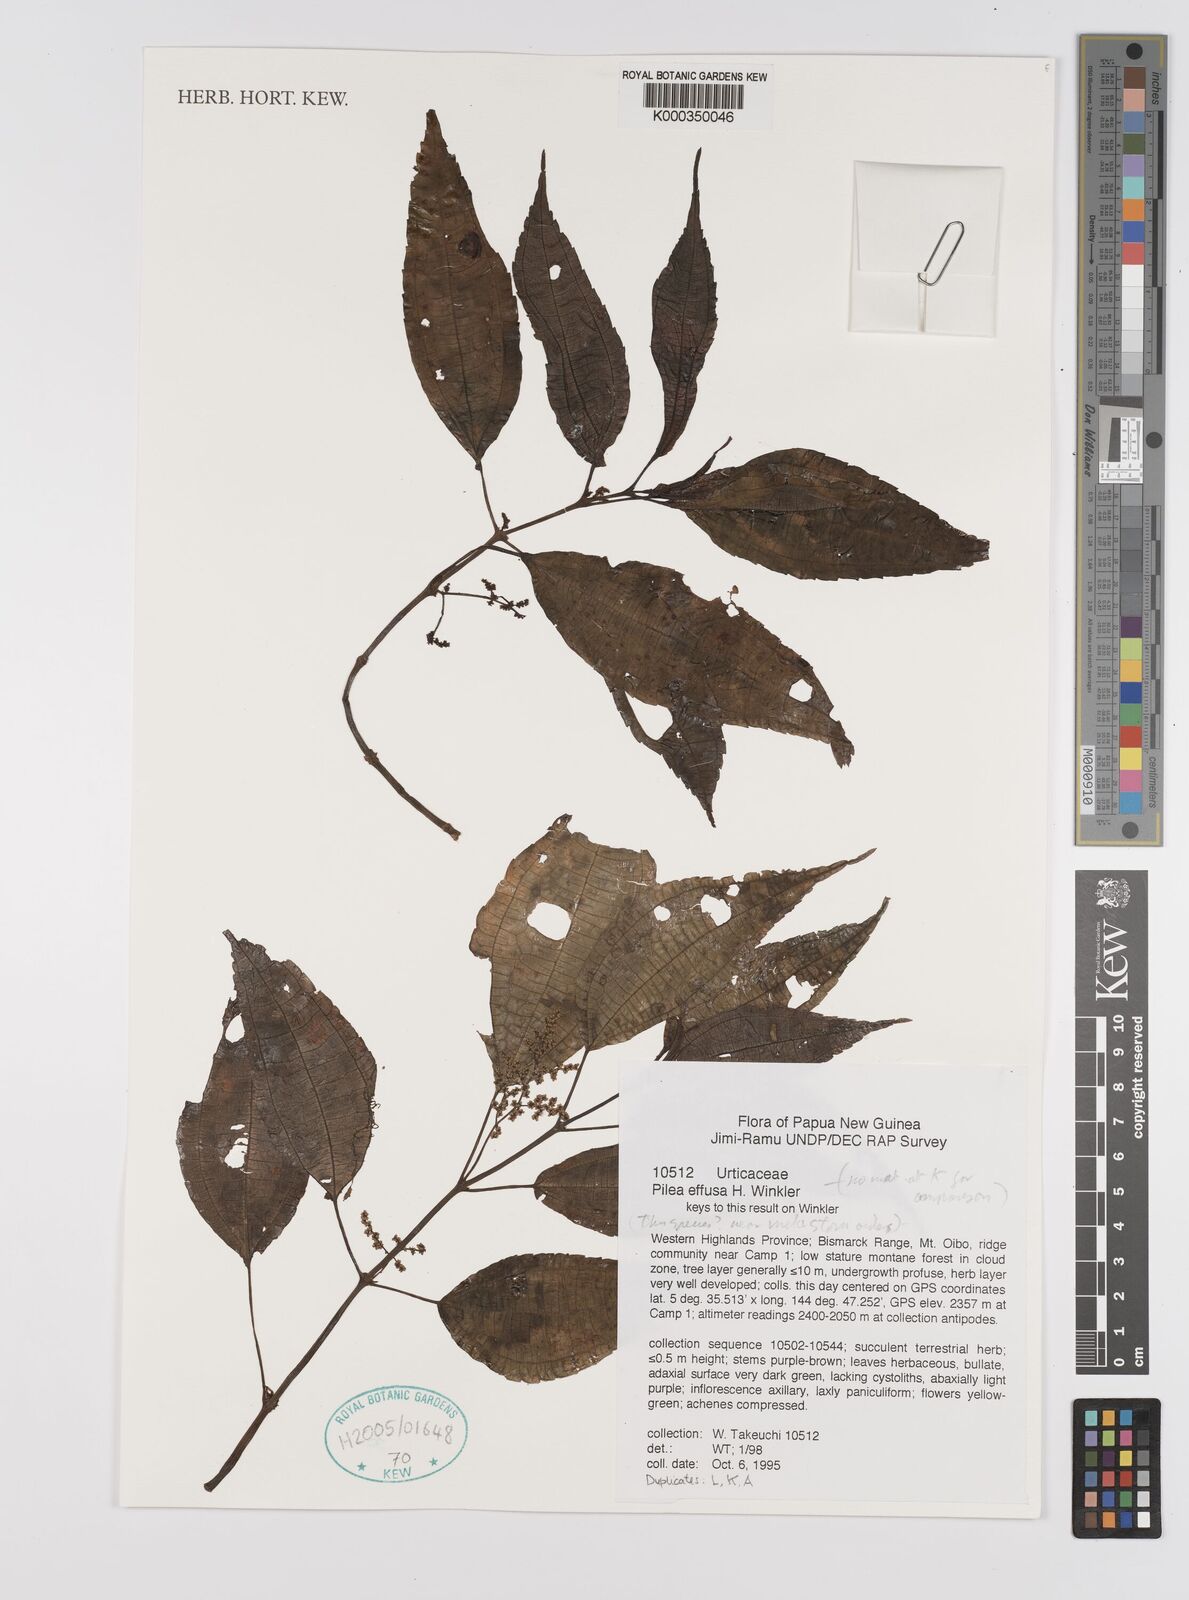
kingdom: Plantae
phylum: Tracheophyta
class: Magnoliopsida
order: Rosales
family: Urticaceae
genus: Pilea
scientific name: Pilea
